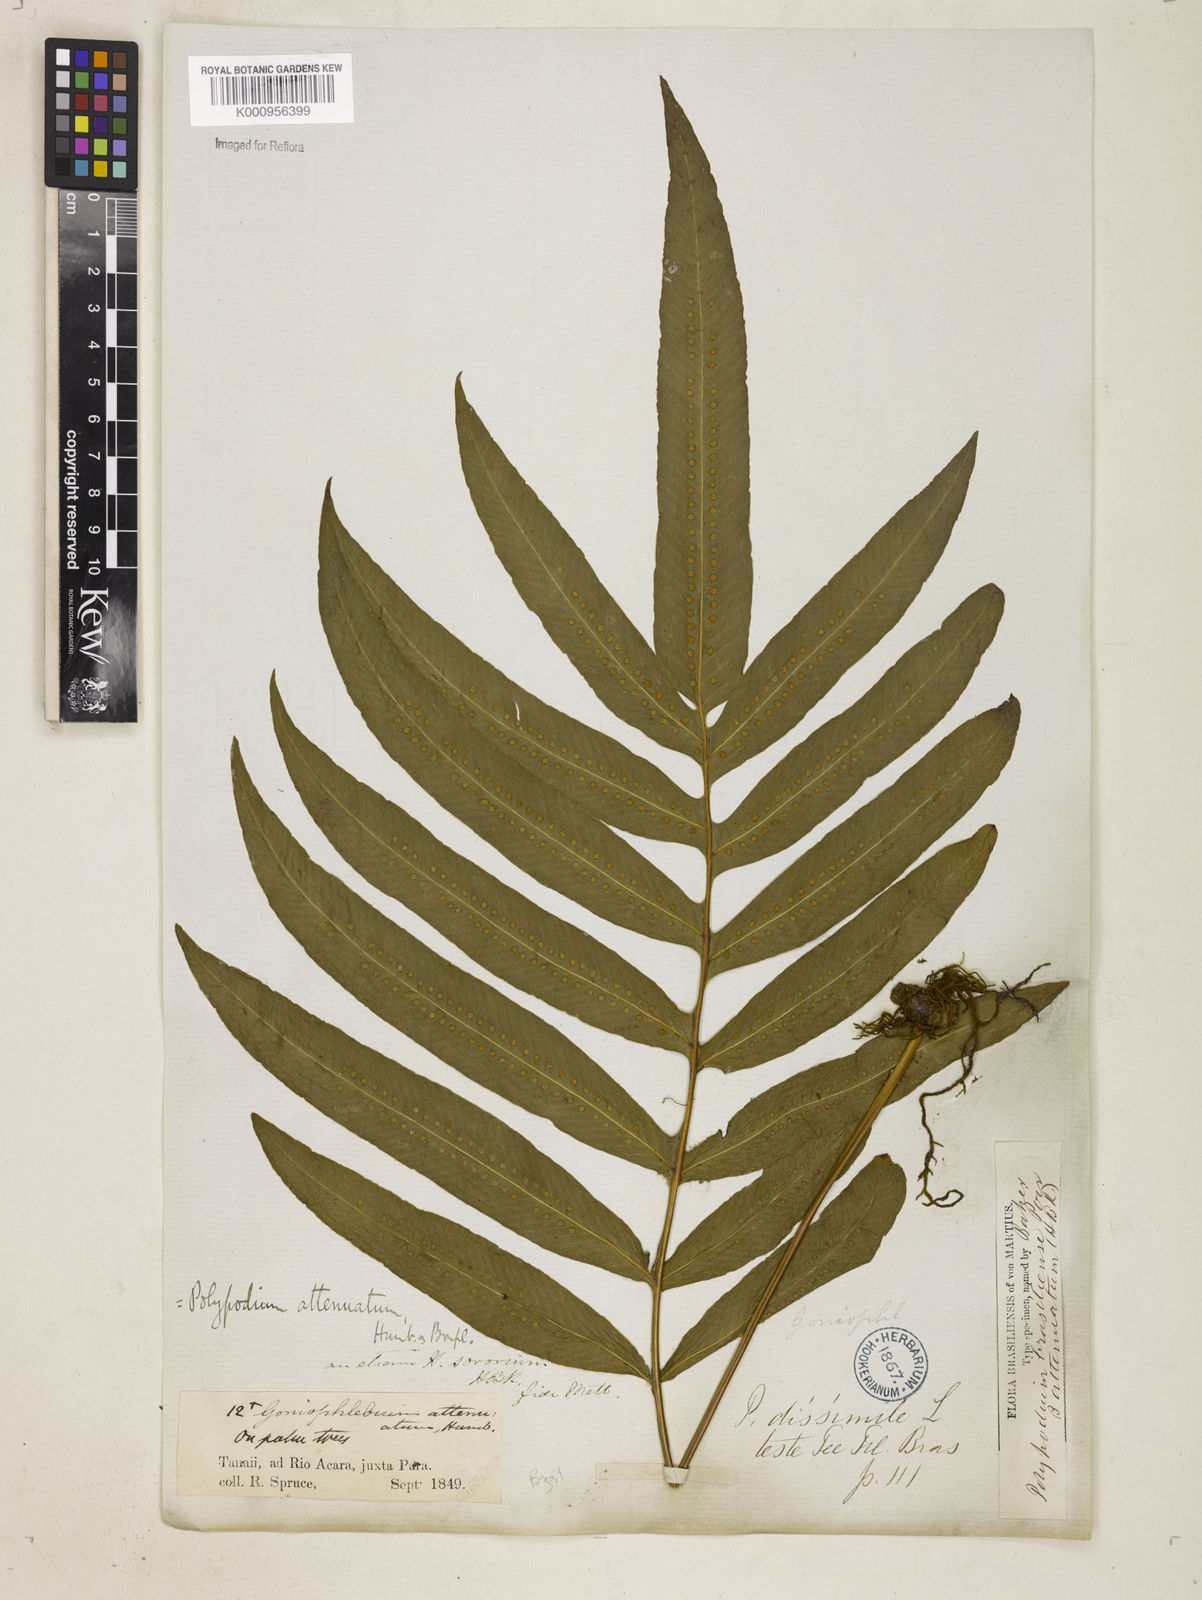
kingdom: Plantae
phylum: Tracheophyta
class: Polypodiopsida
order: Polypodiales
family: Polypodiaceae
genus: Serpocaulon
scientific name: Serpocaulon triseriale
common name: Angle-vein fern
